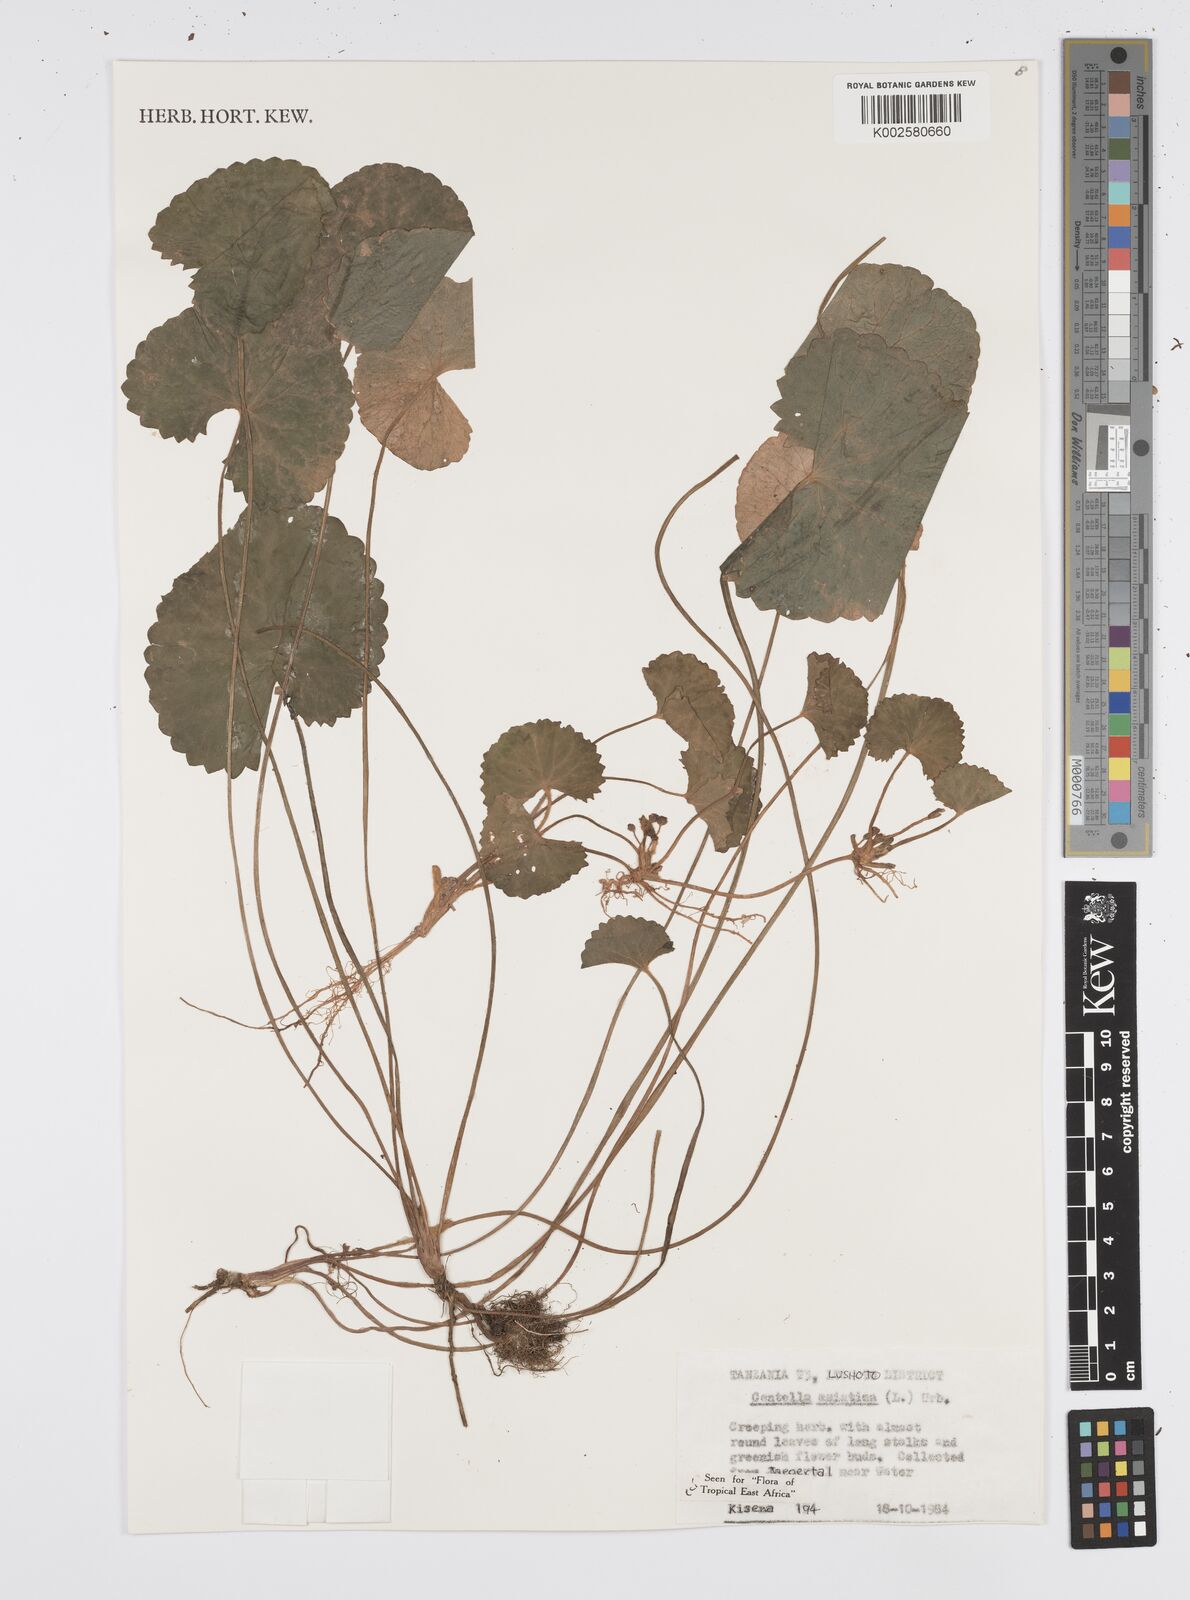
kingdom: Plantae
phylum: Tracheophyta
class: Magnoliopsida
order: Apiales
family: Apiaceae
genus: Centella
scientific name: Centella asiatica
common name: Spadeleaf
